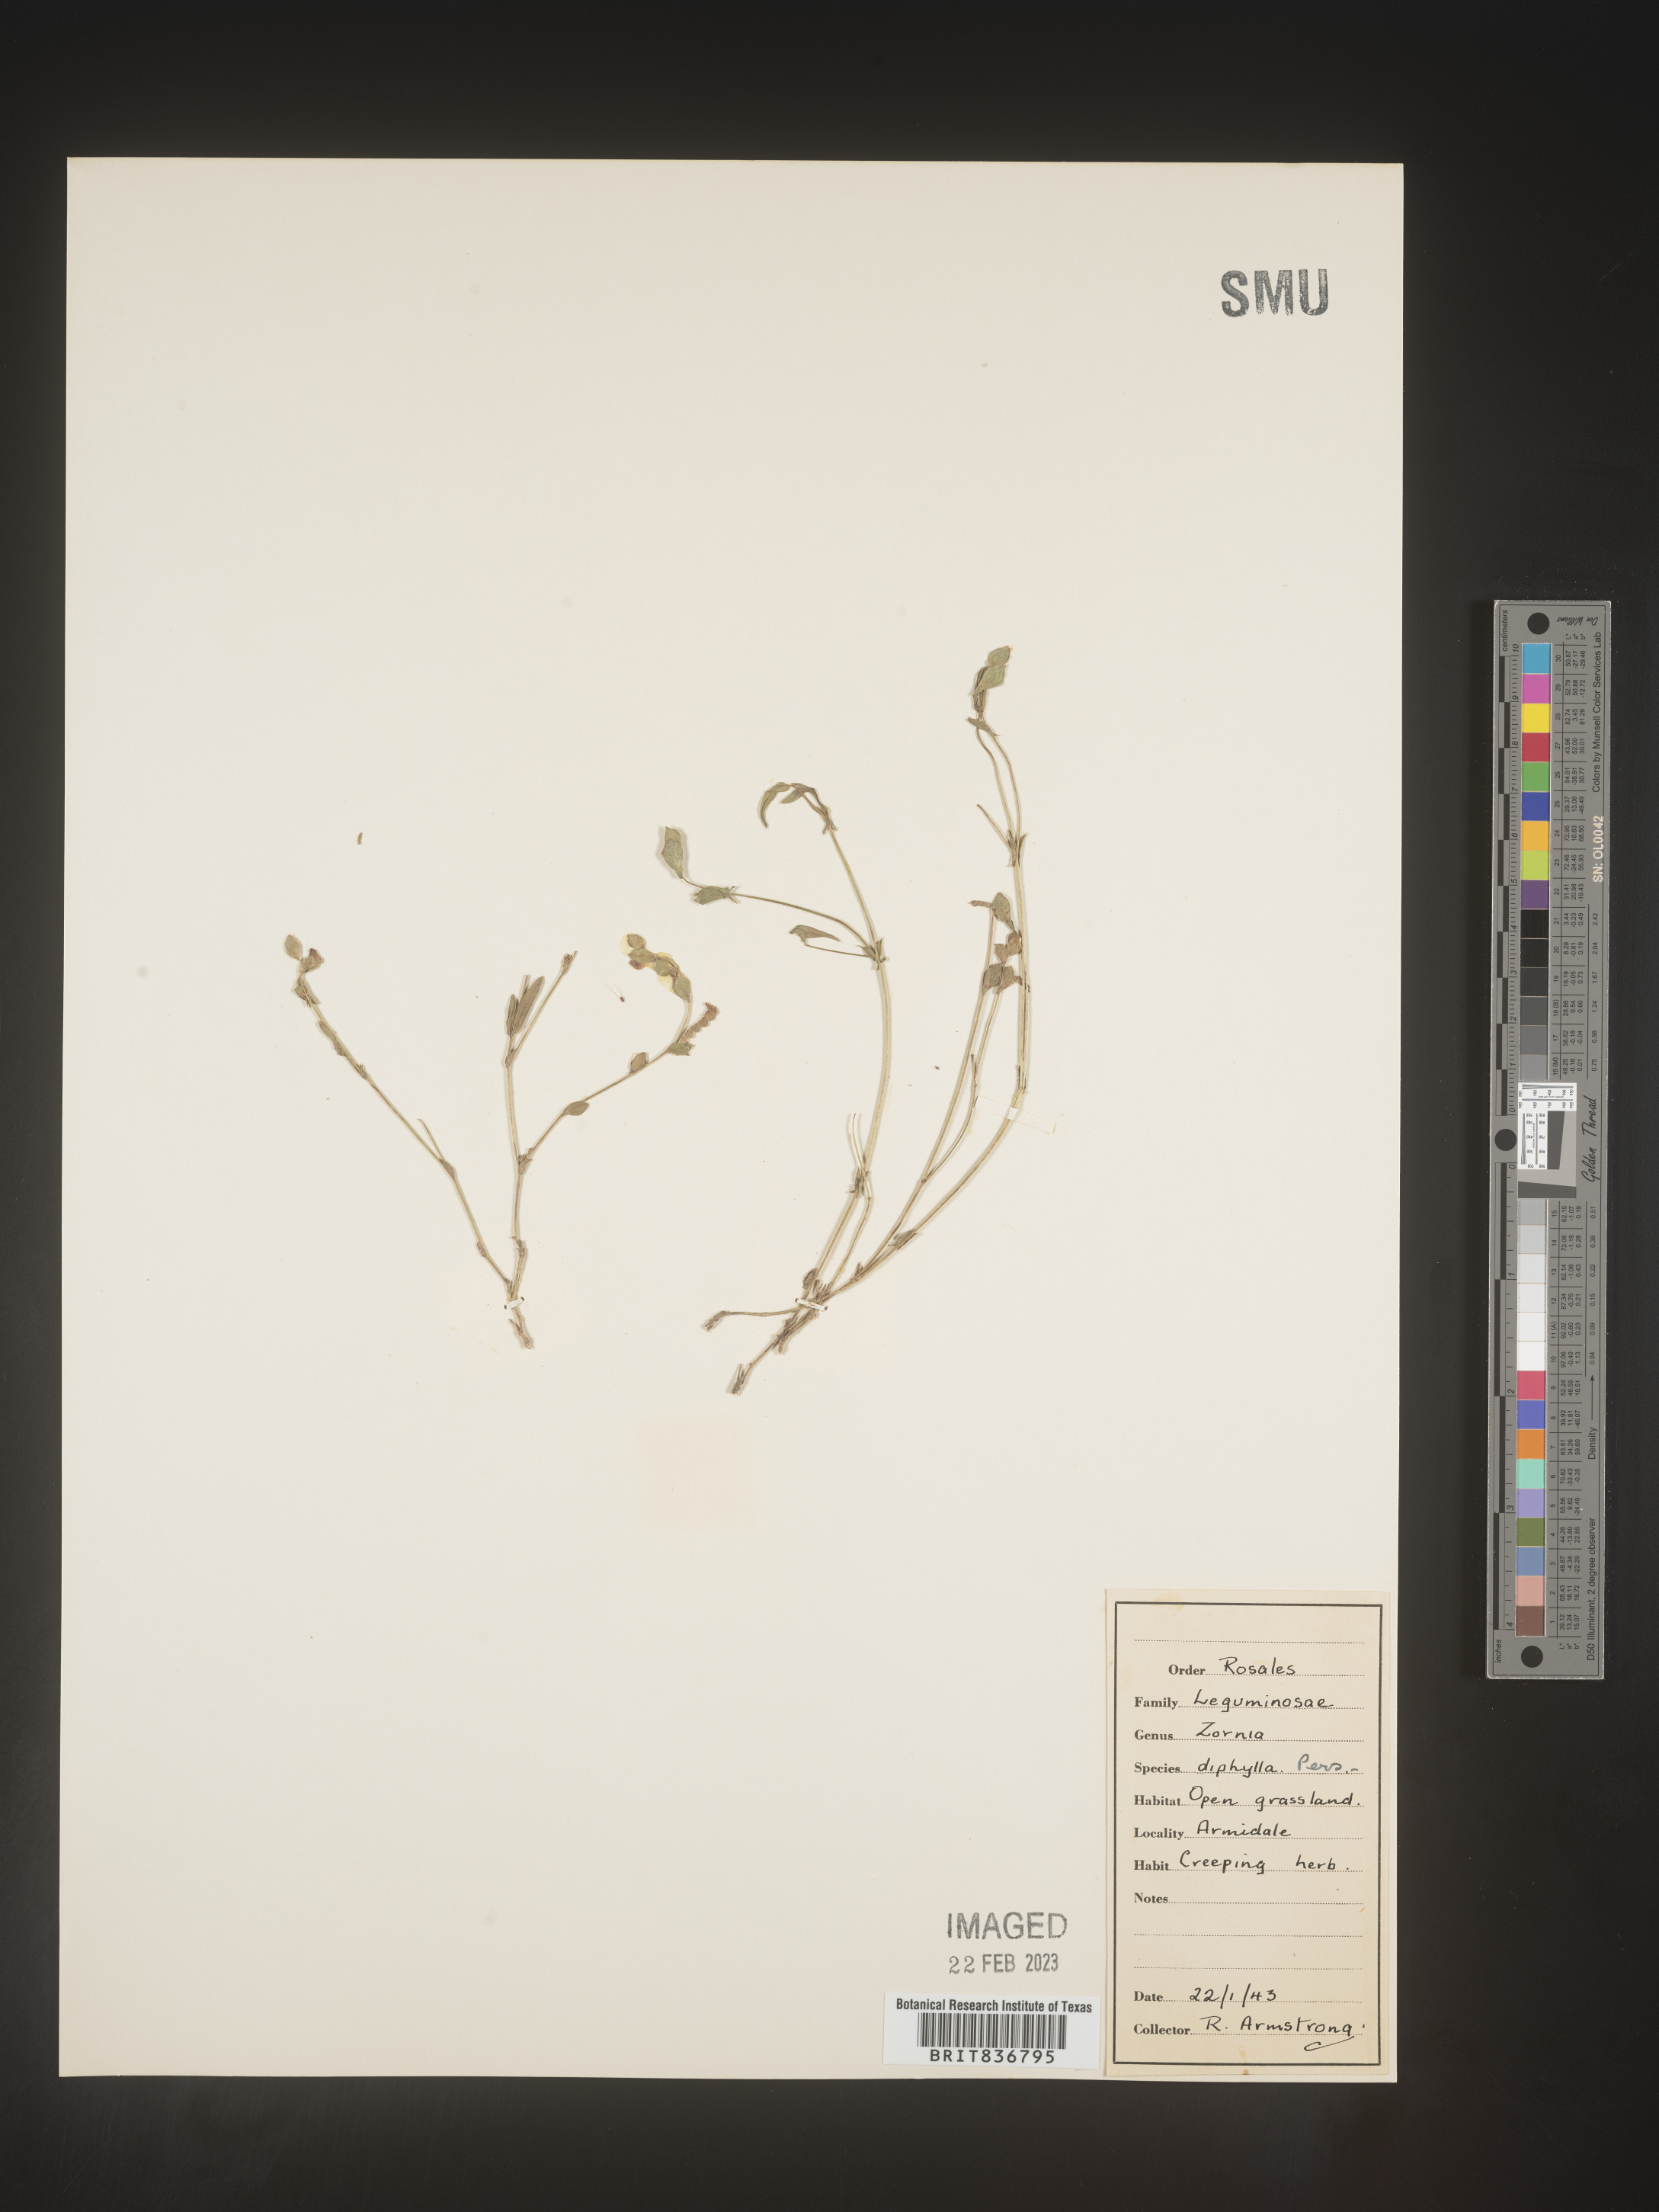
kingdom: Plantae
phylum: Tracheophyta
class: Magnoliopsida
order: Fabales
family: Fabaceae
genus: Zornia
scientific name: Zornia
